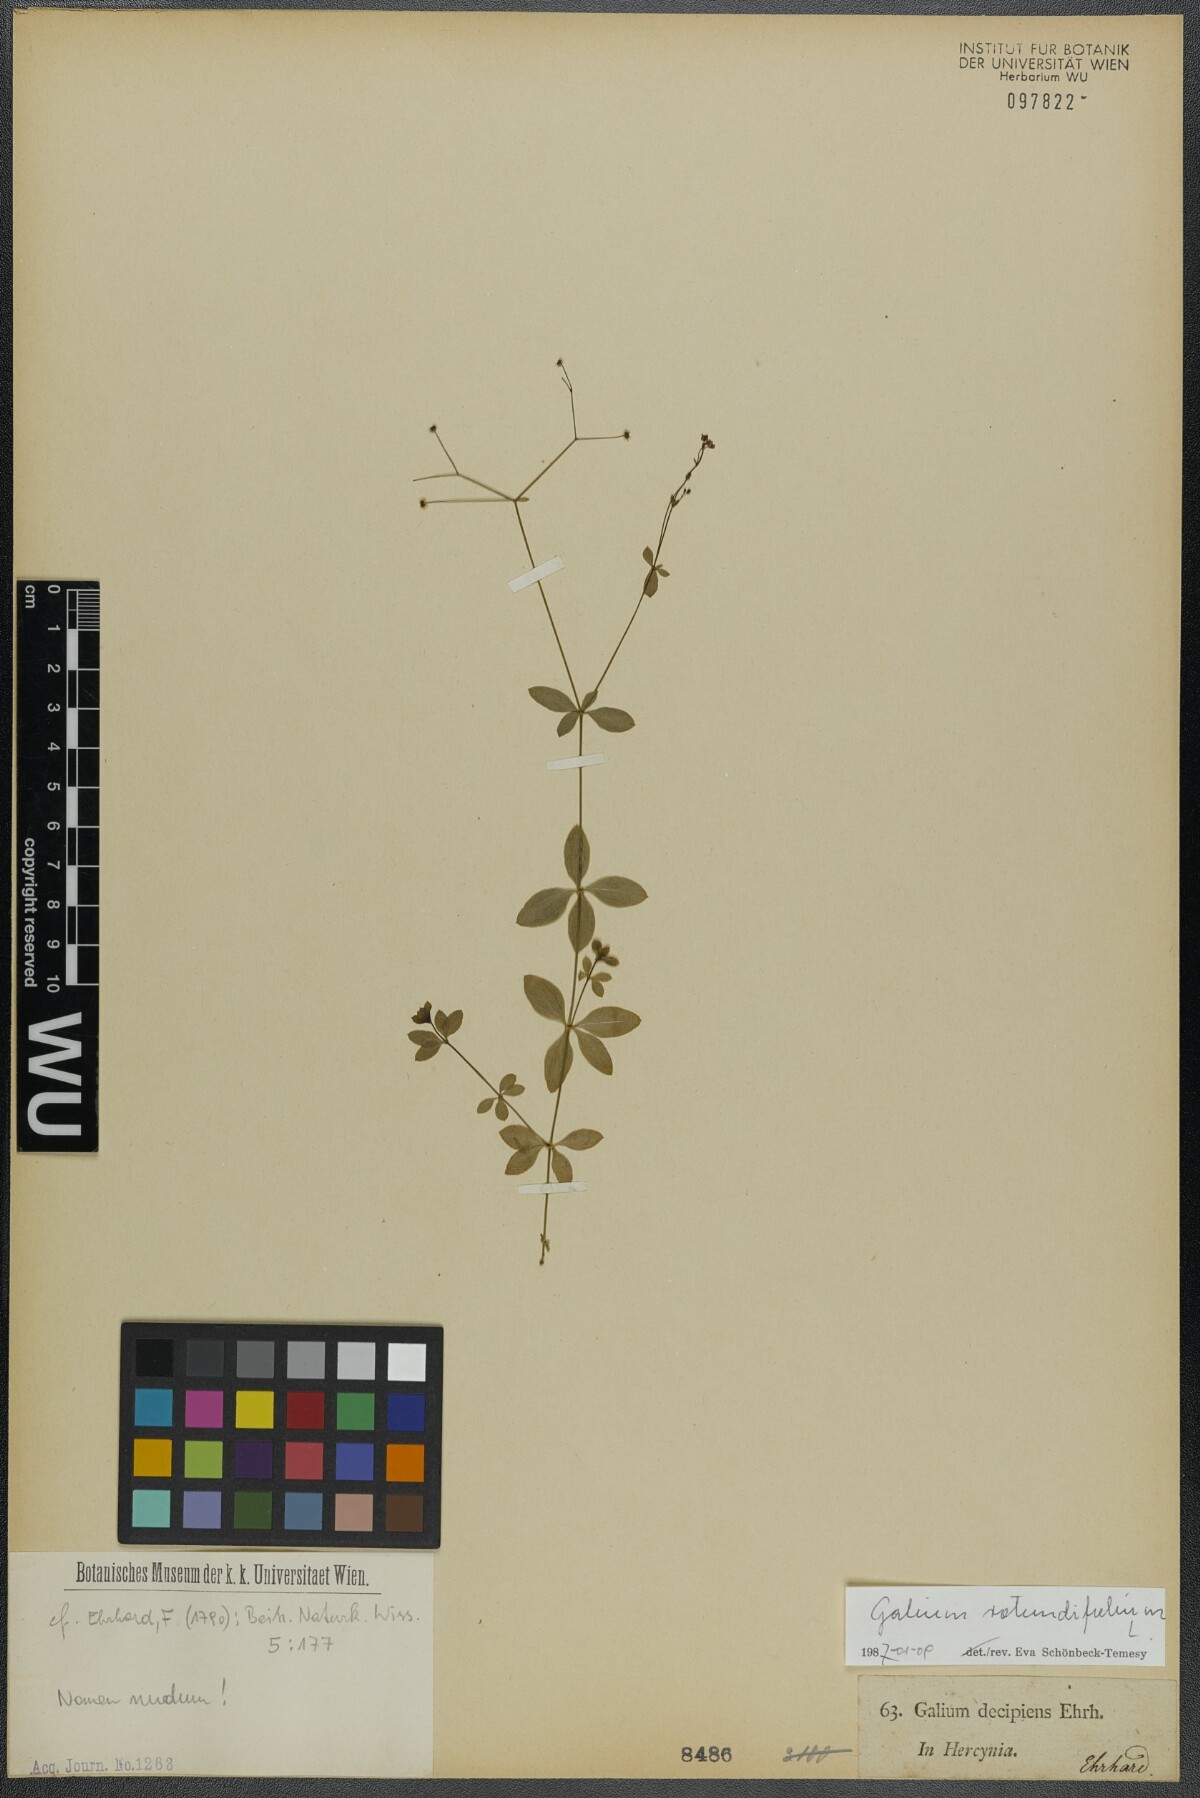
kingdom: Plantae
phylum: Tracheophyta
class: Magnoliopsida
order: Gentianales
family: Rubiaceae
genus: Galium
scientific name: Galium rotundifolium
